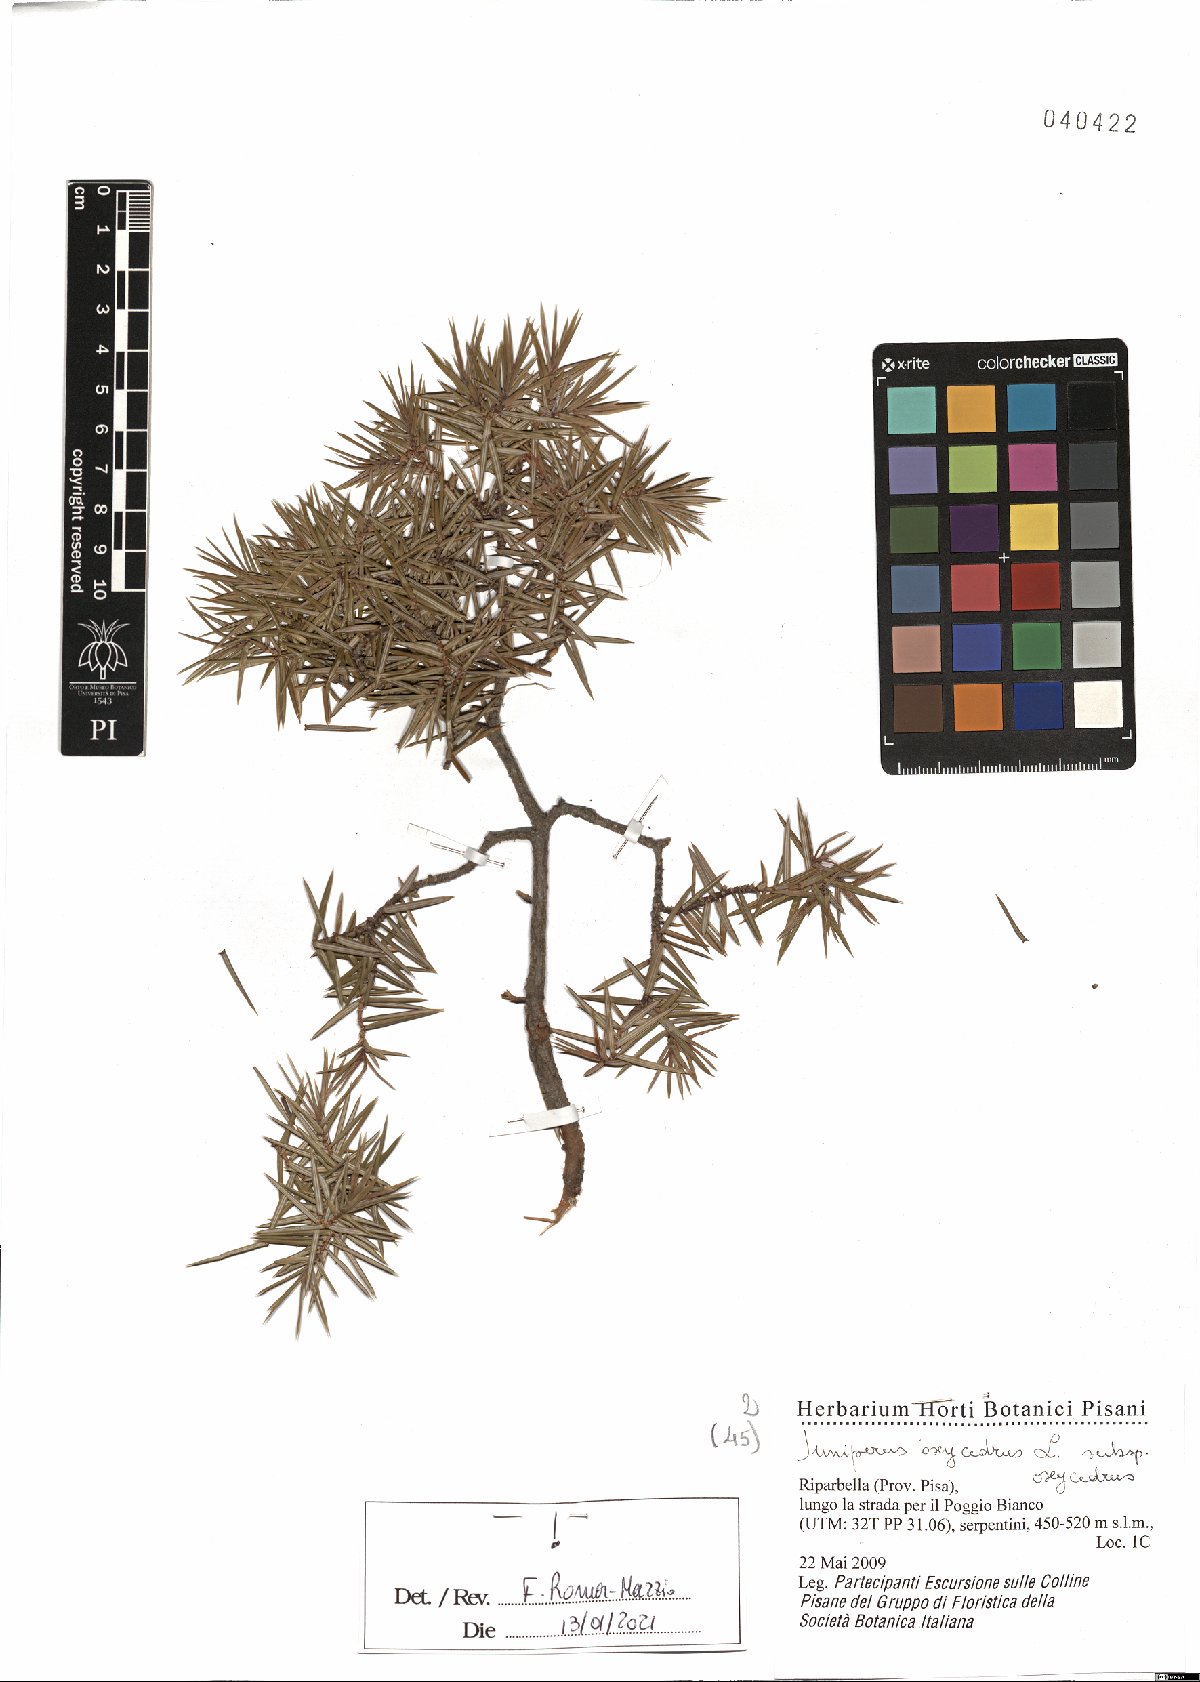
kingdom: Plantae
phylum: Tracheophyta
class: Pinopsida
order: Pinales
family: Cupressaceae
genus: Juniperus
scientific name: Juniperus oxycedrus
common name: Prickly juniper
